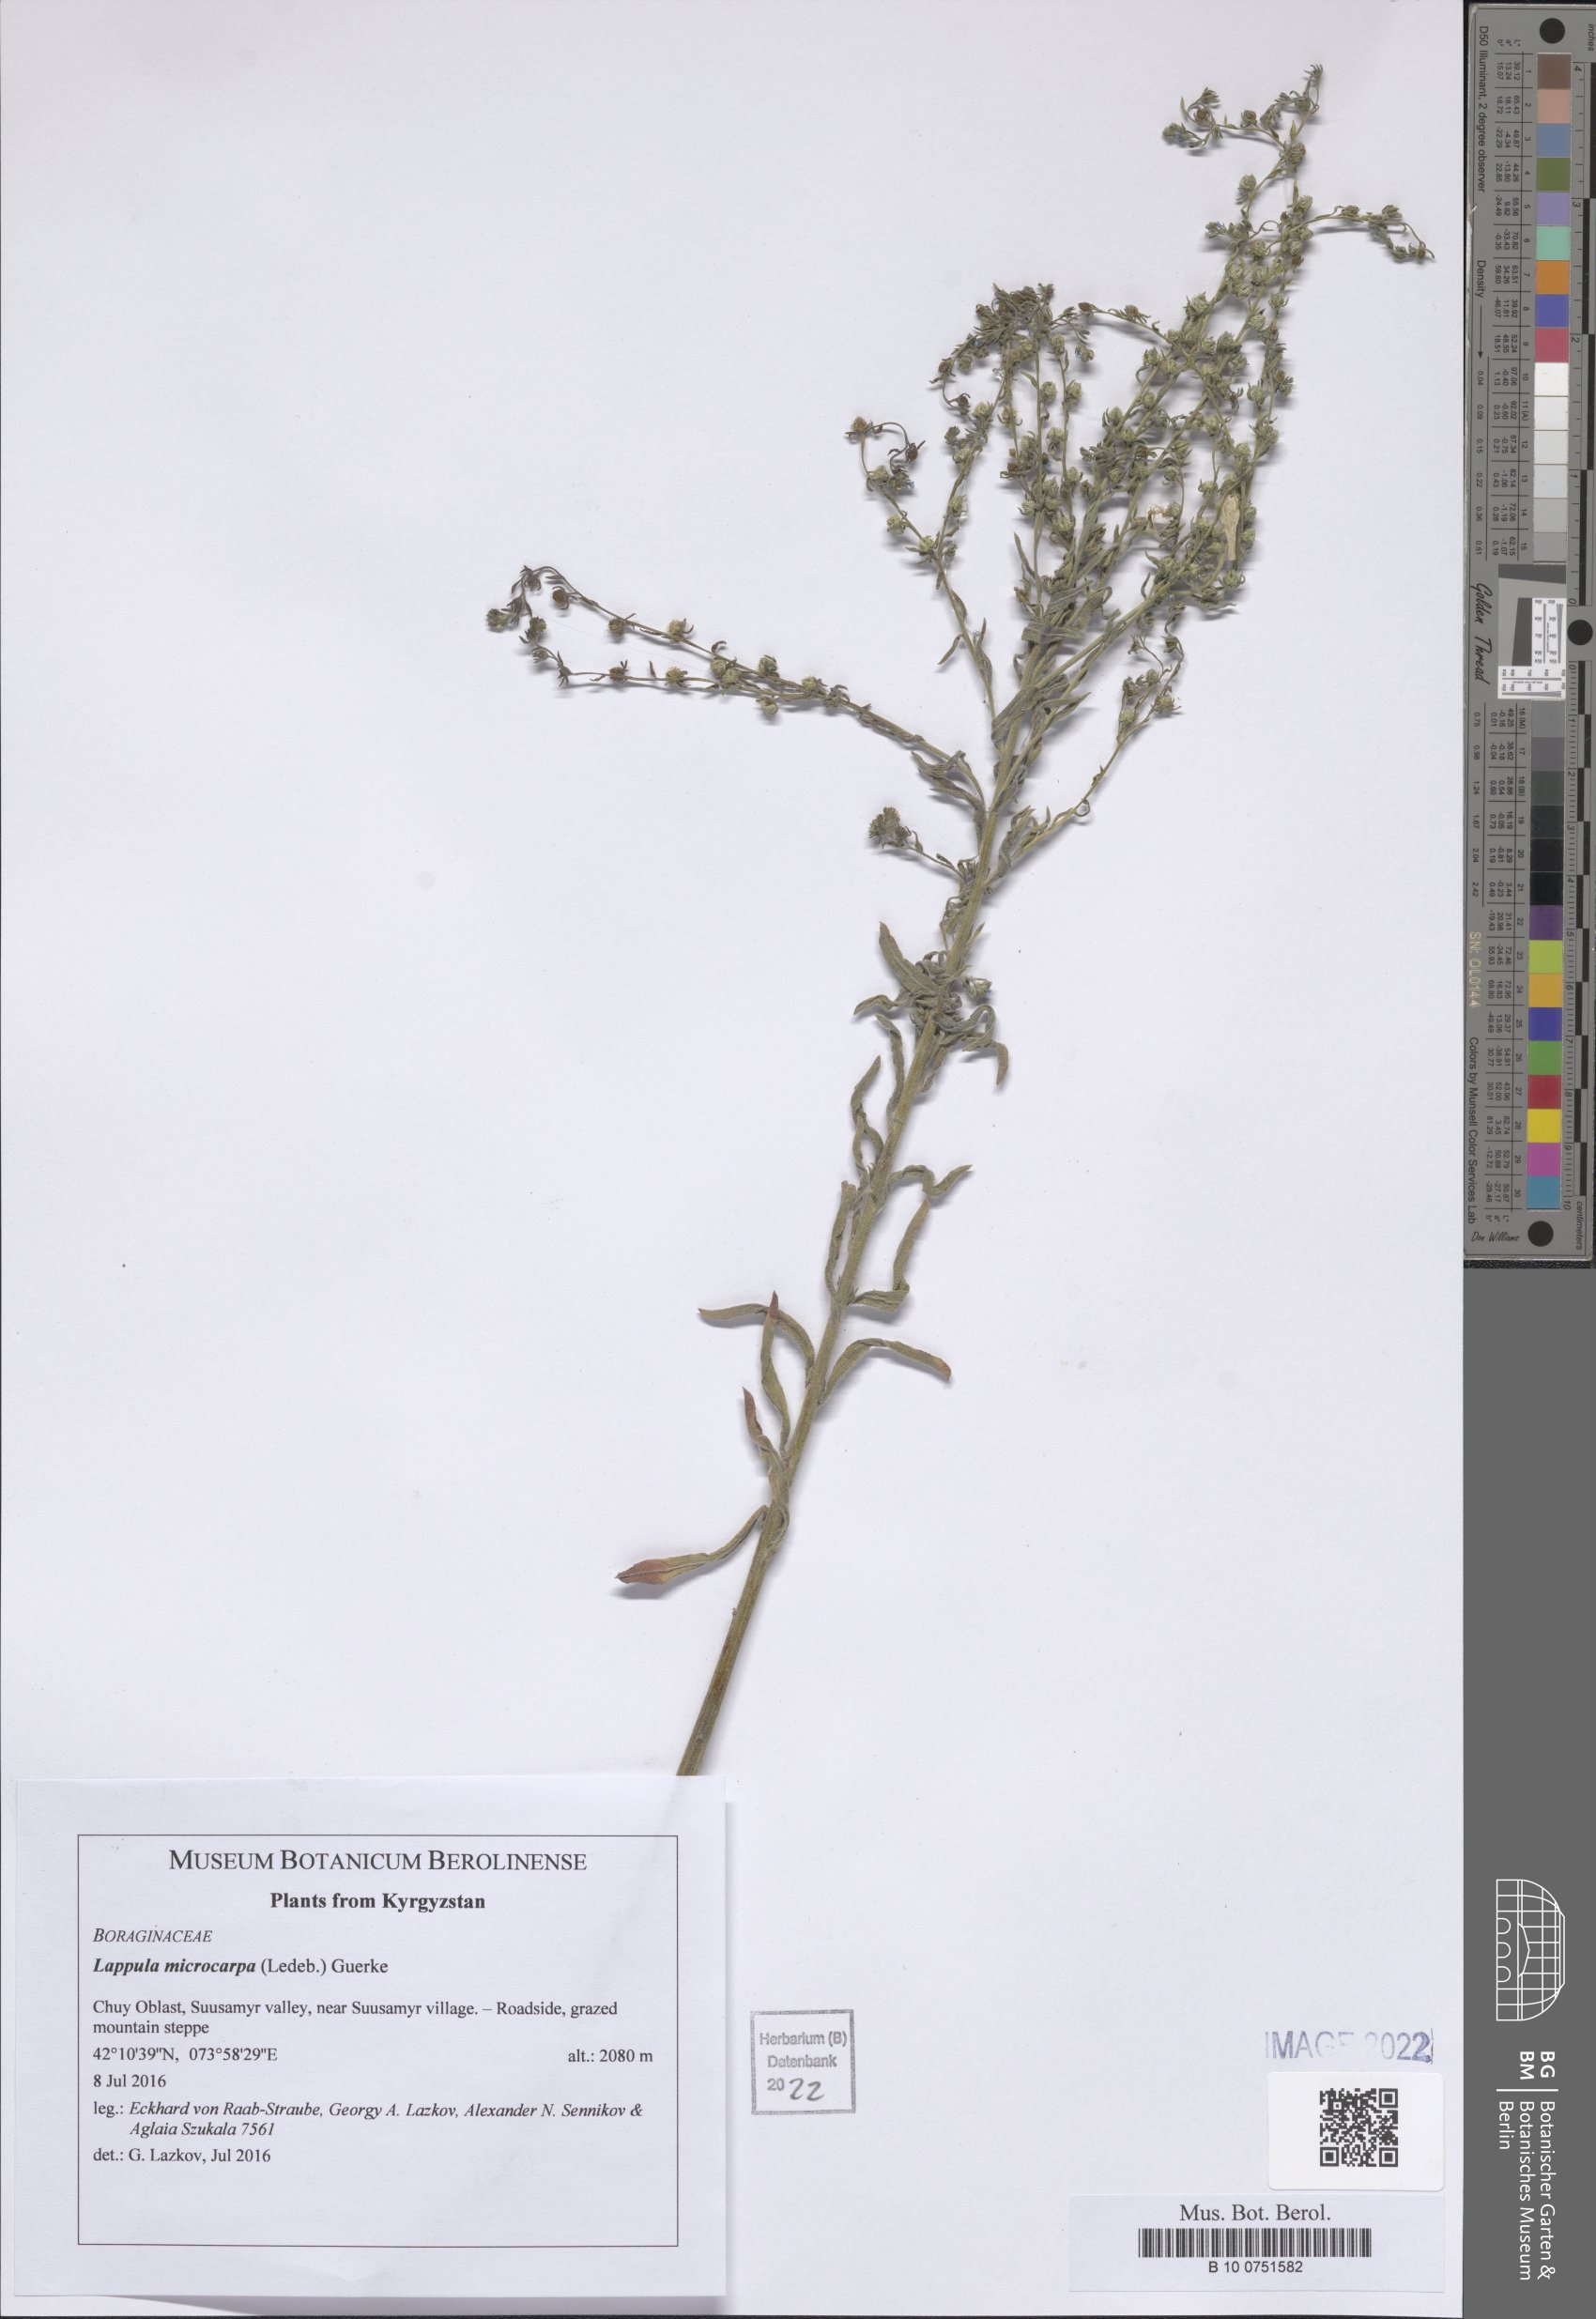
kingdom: Plantae
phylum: Tracheophyta
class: Magnoliopsida
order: Boraginales
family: Boraginaceae
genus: Lappula
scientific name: Lappula microcarpa
